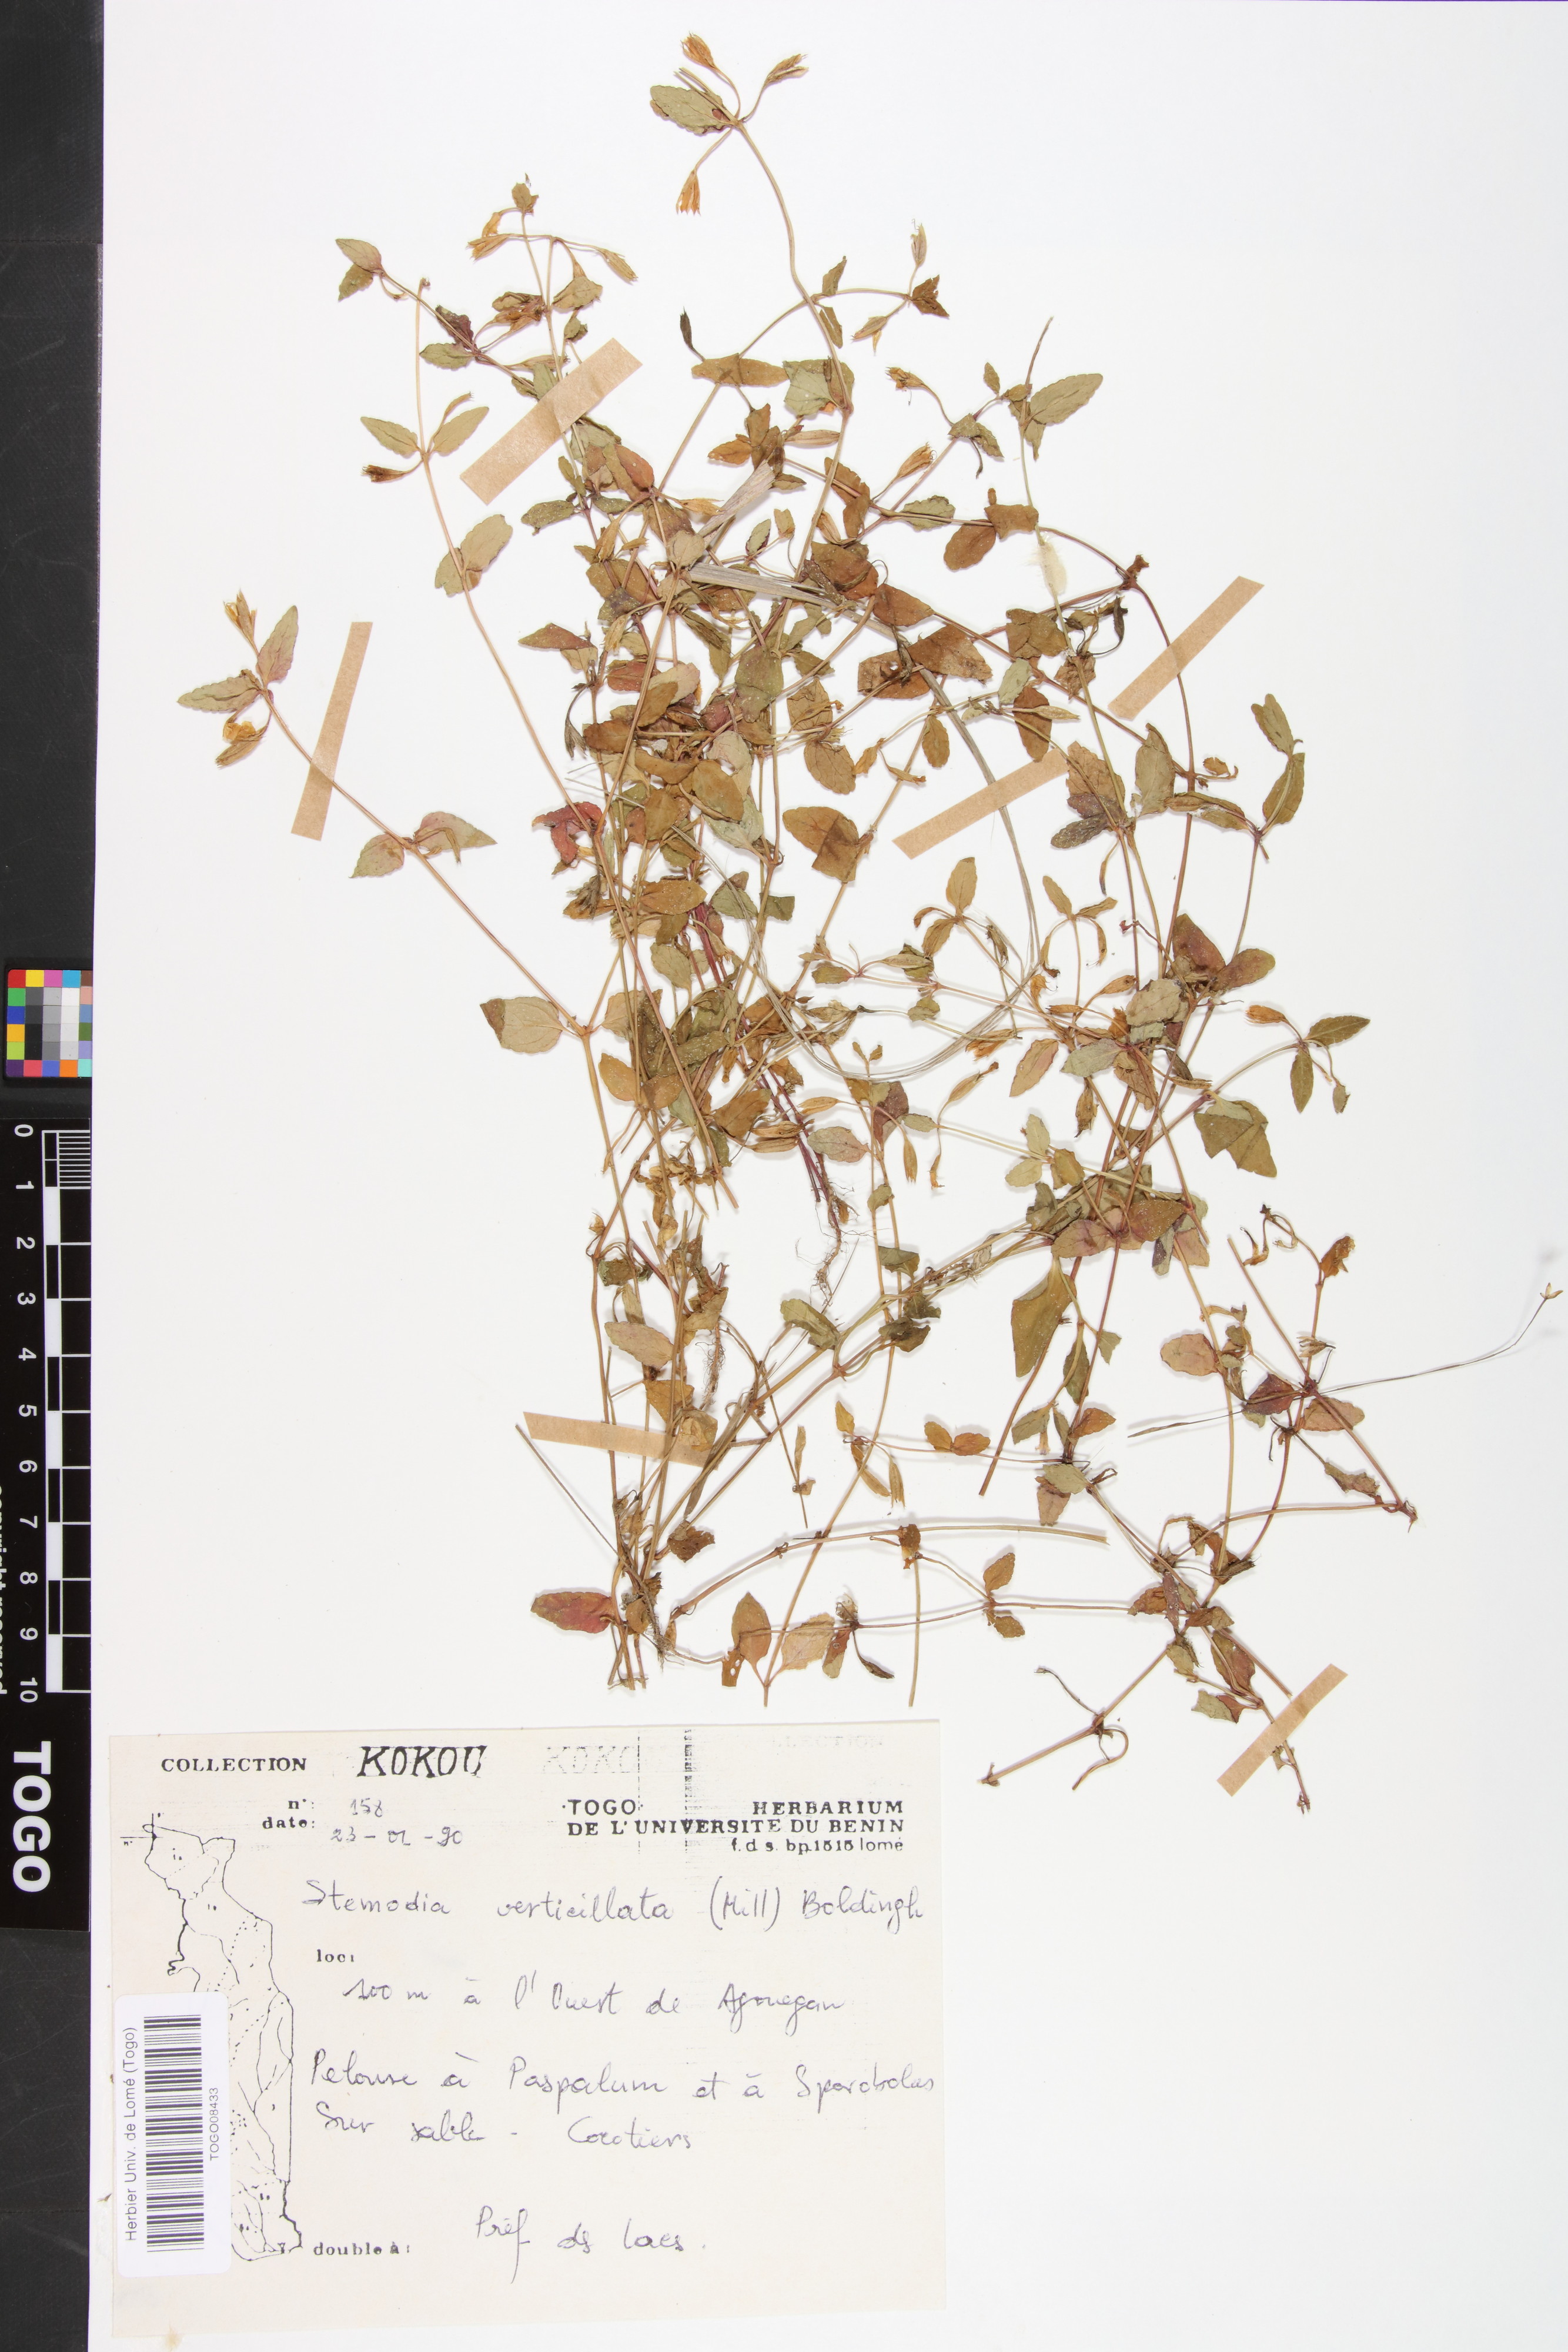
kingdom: Plantae
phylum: Tracheophyta
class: Magnoliopsida
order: Lamiales
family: Plantaginaceae
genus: Stemodia
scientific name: Stemodia verticillata
